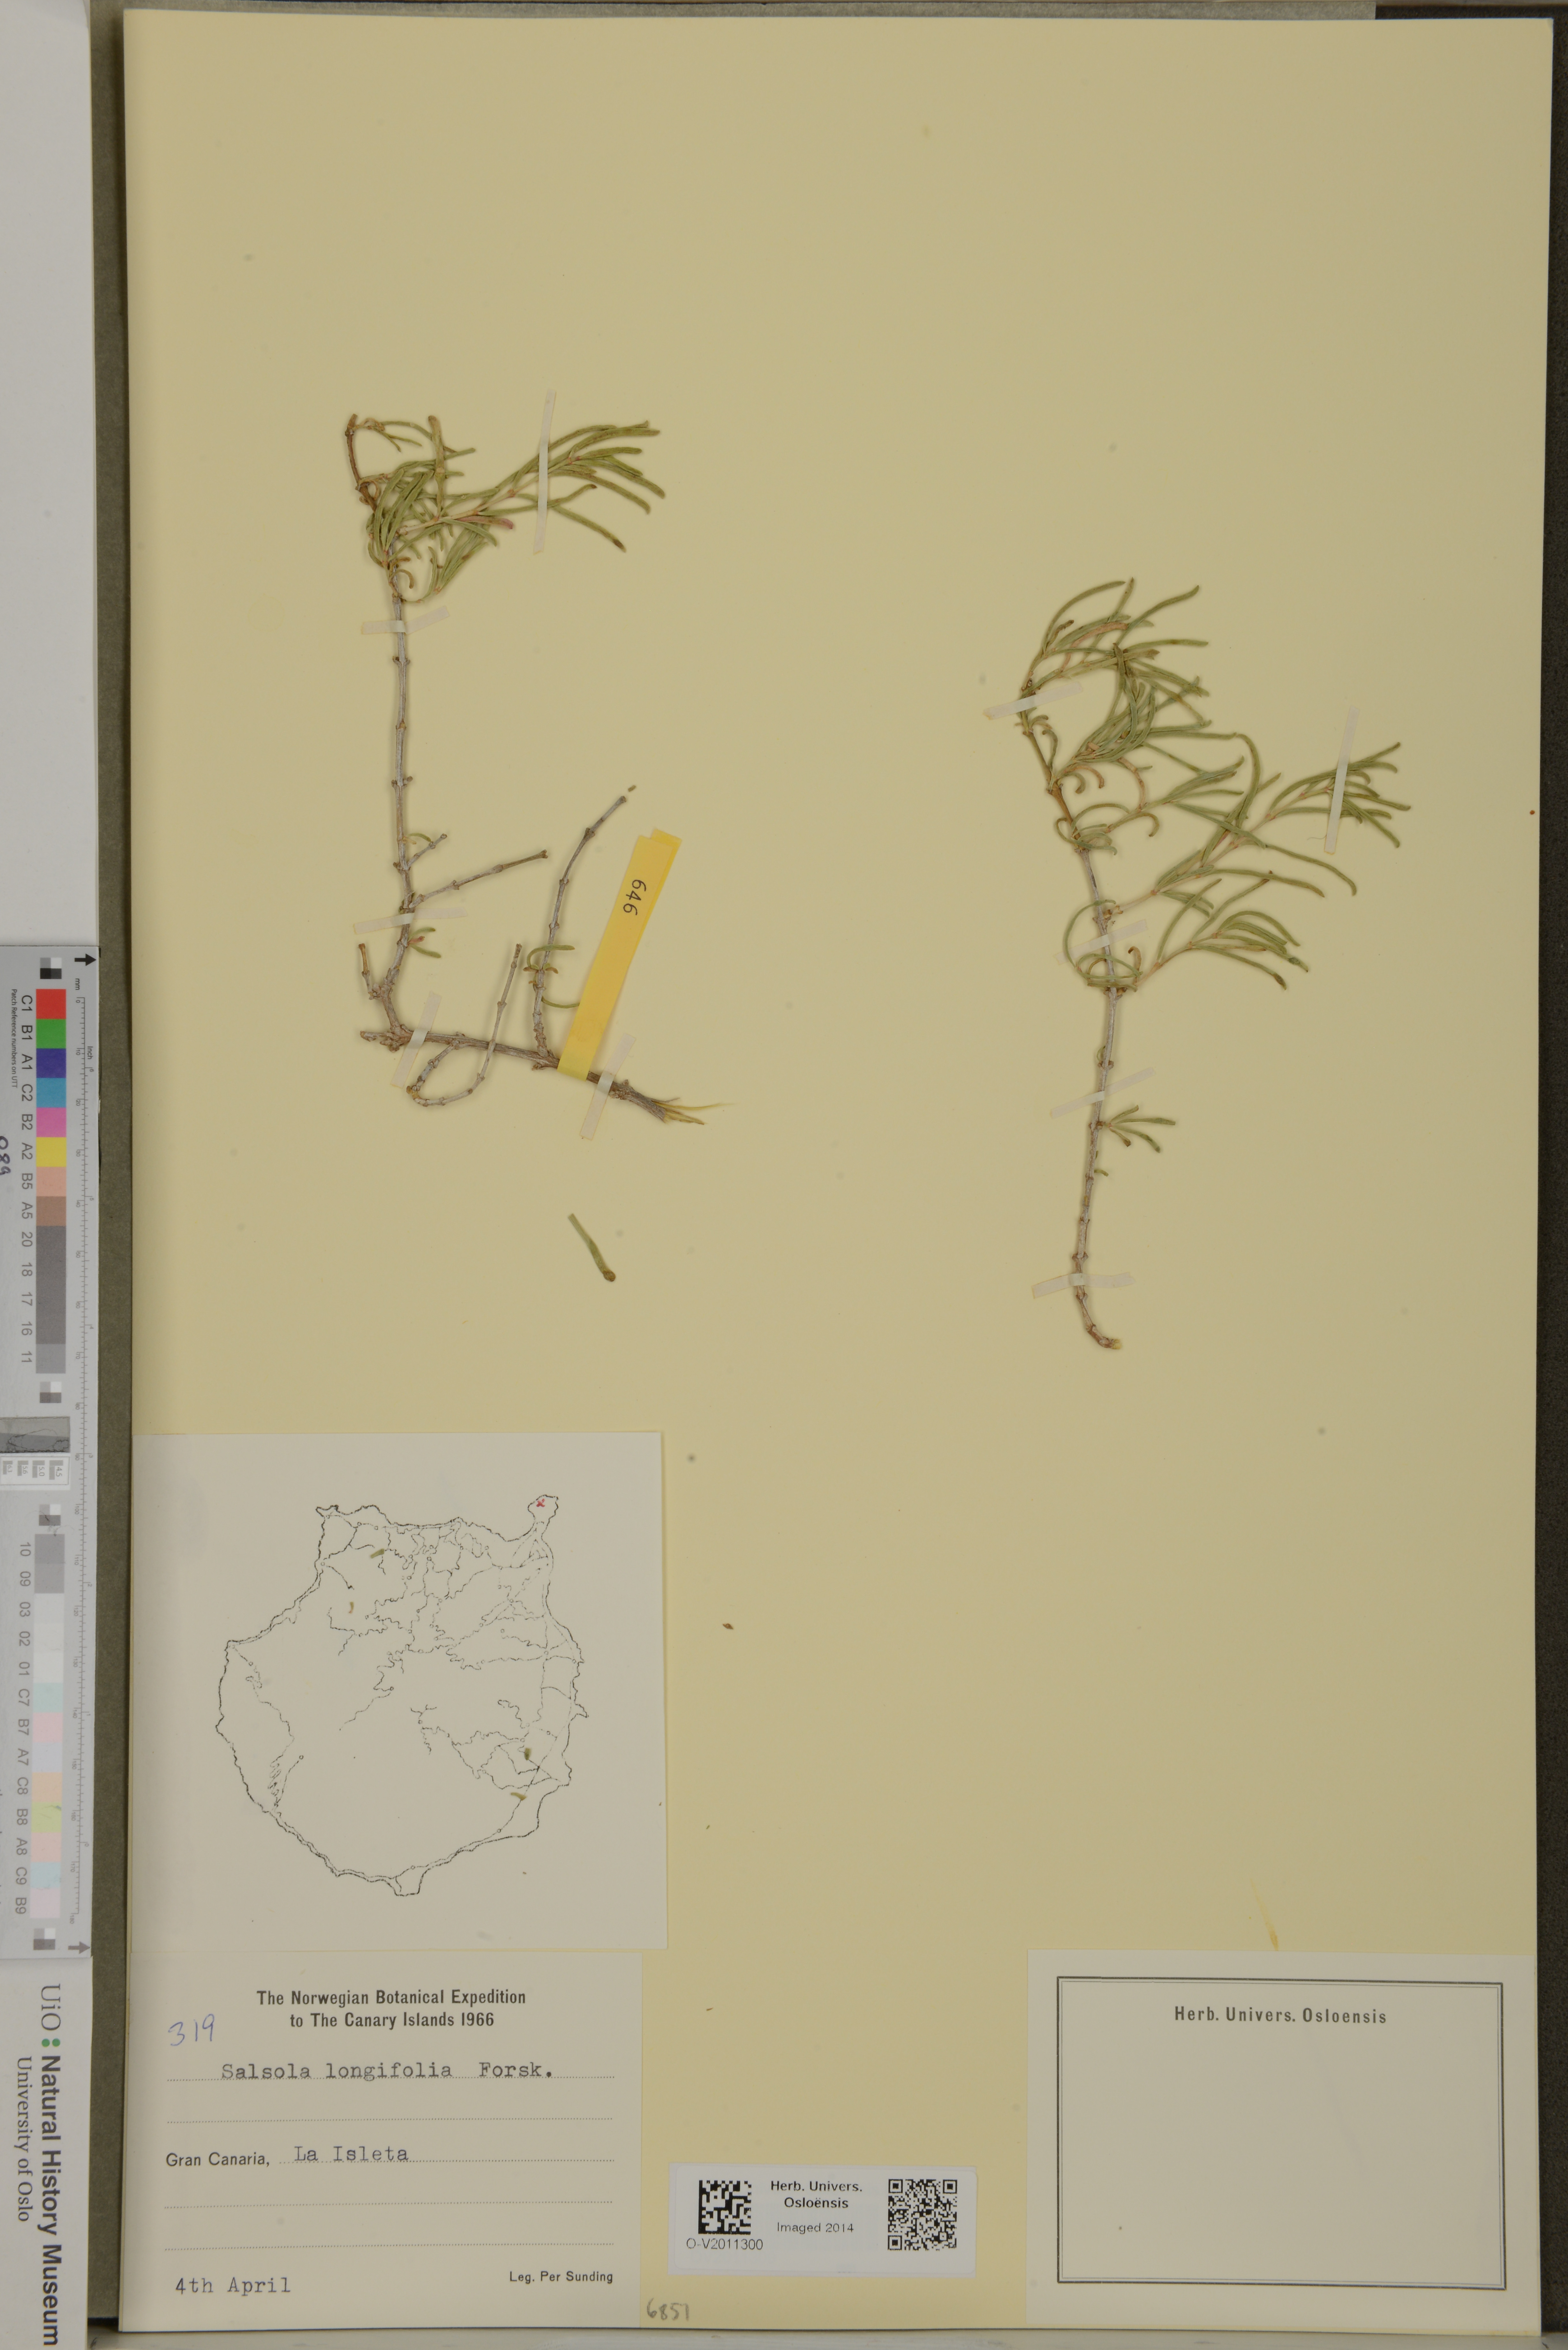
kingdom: Plantae
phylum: Tracheophyta
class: Magnoliopsida
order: Caryophyllales
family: Amaranthaceae
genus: Soda
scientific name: Soda longifolia
